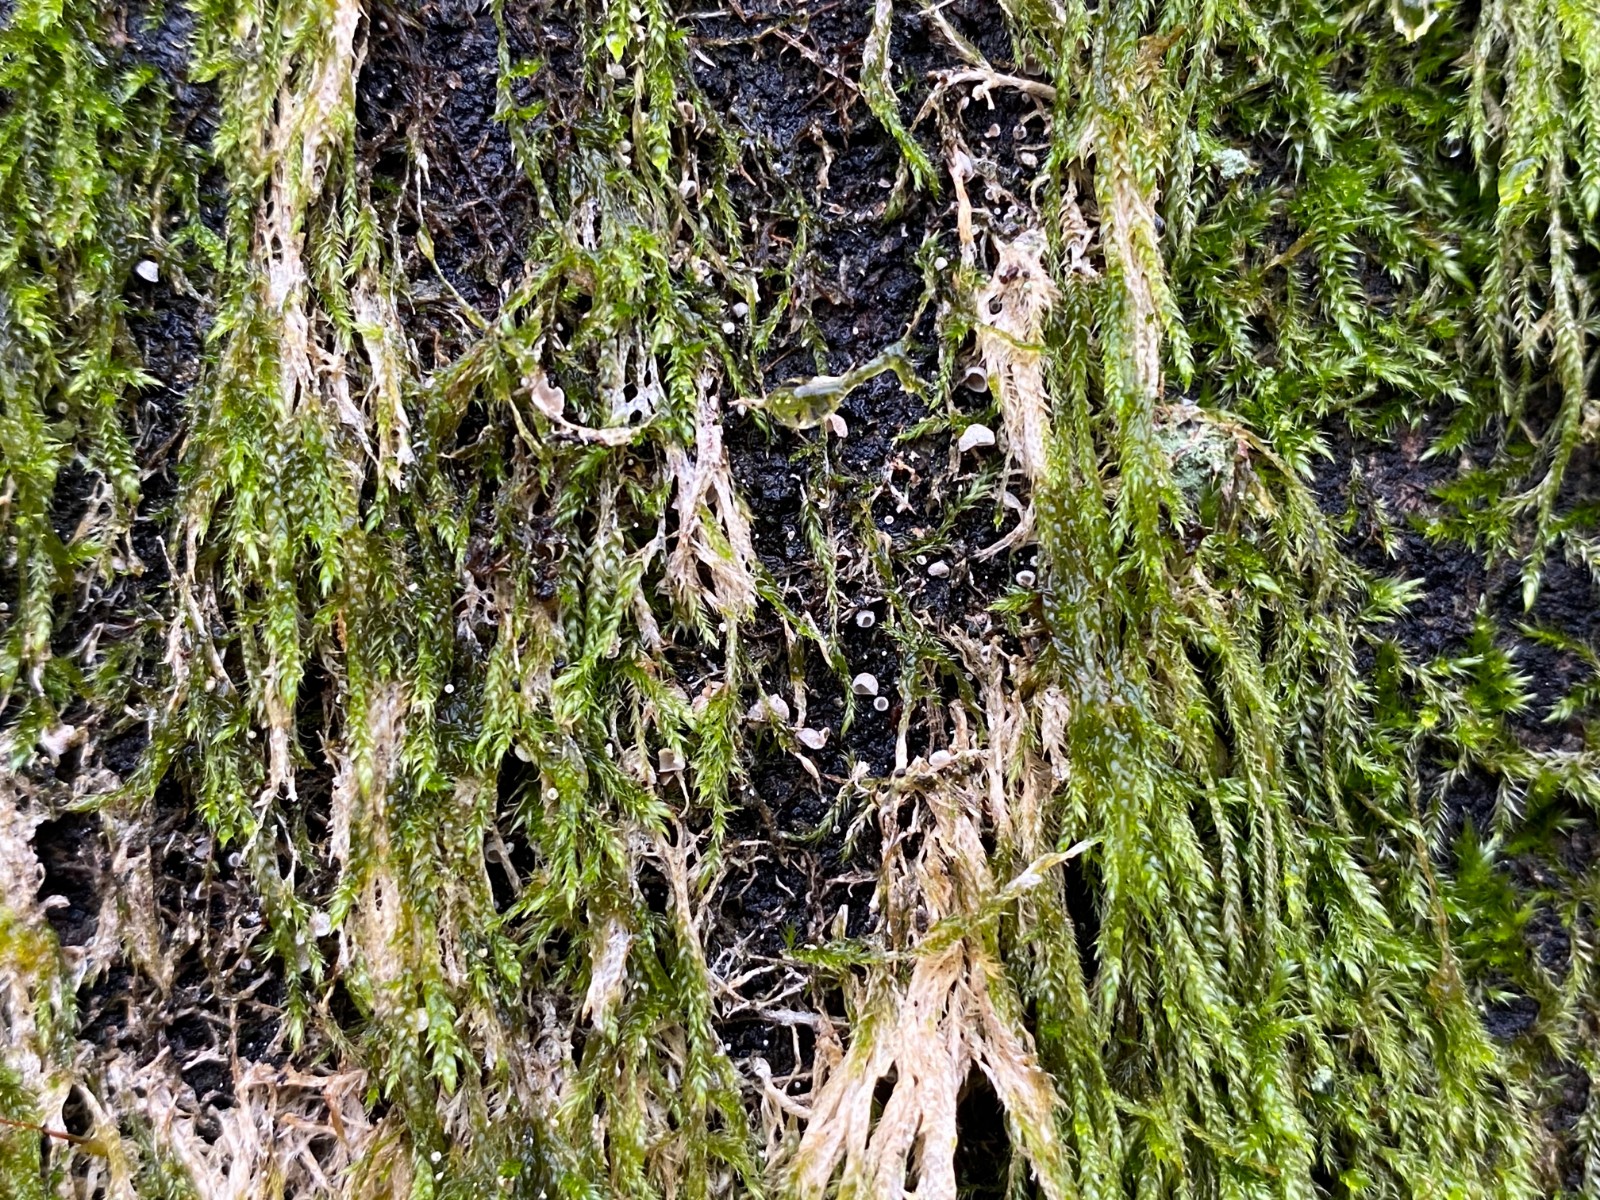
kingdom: Fungi
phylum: Basidiomycota
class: Agaricomycetes
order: Agaricales
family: Chromocyphellaceae
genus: Chromocyphella
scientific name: Chromocyphella muscicola
